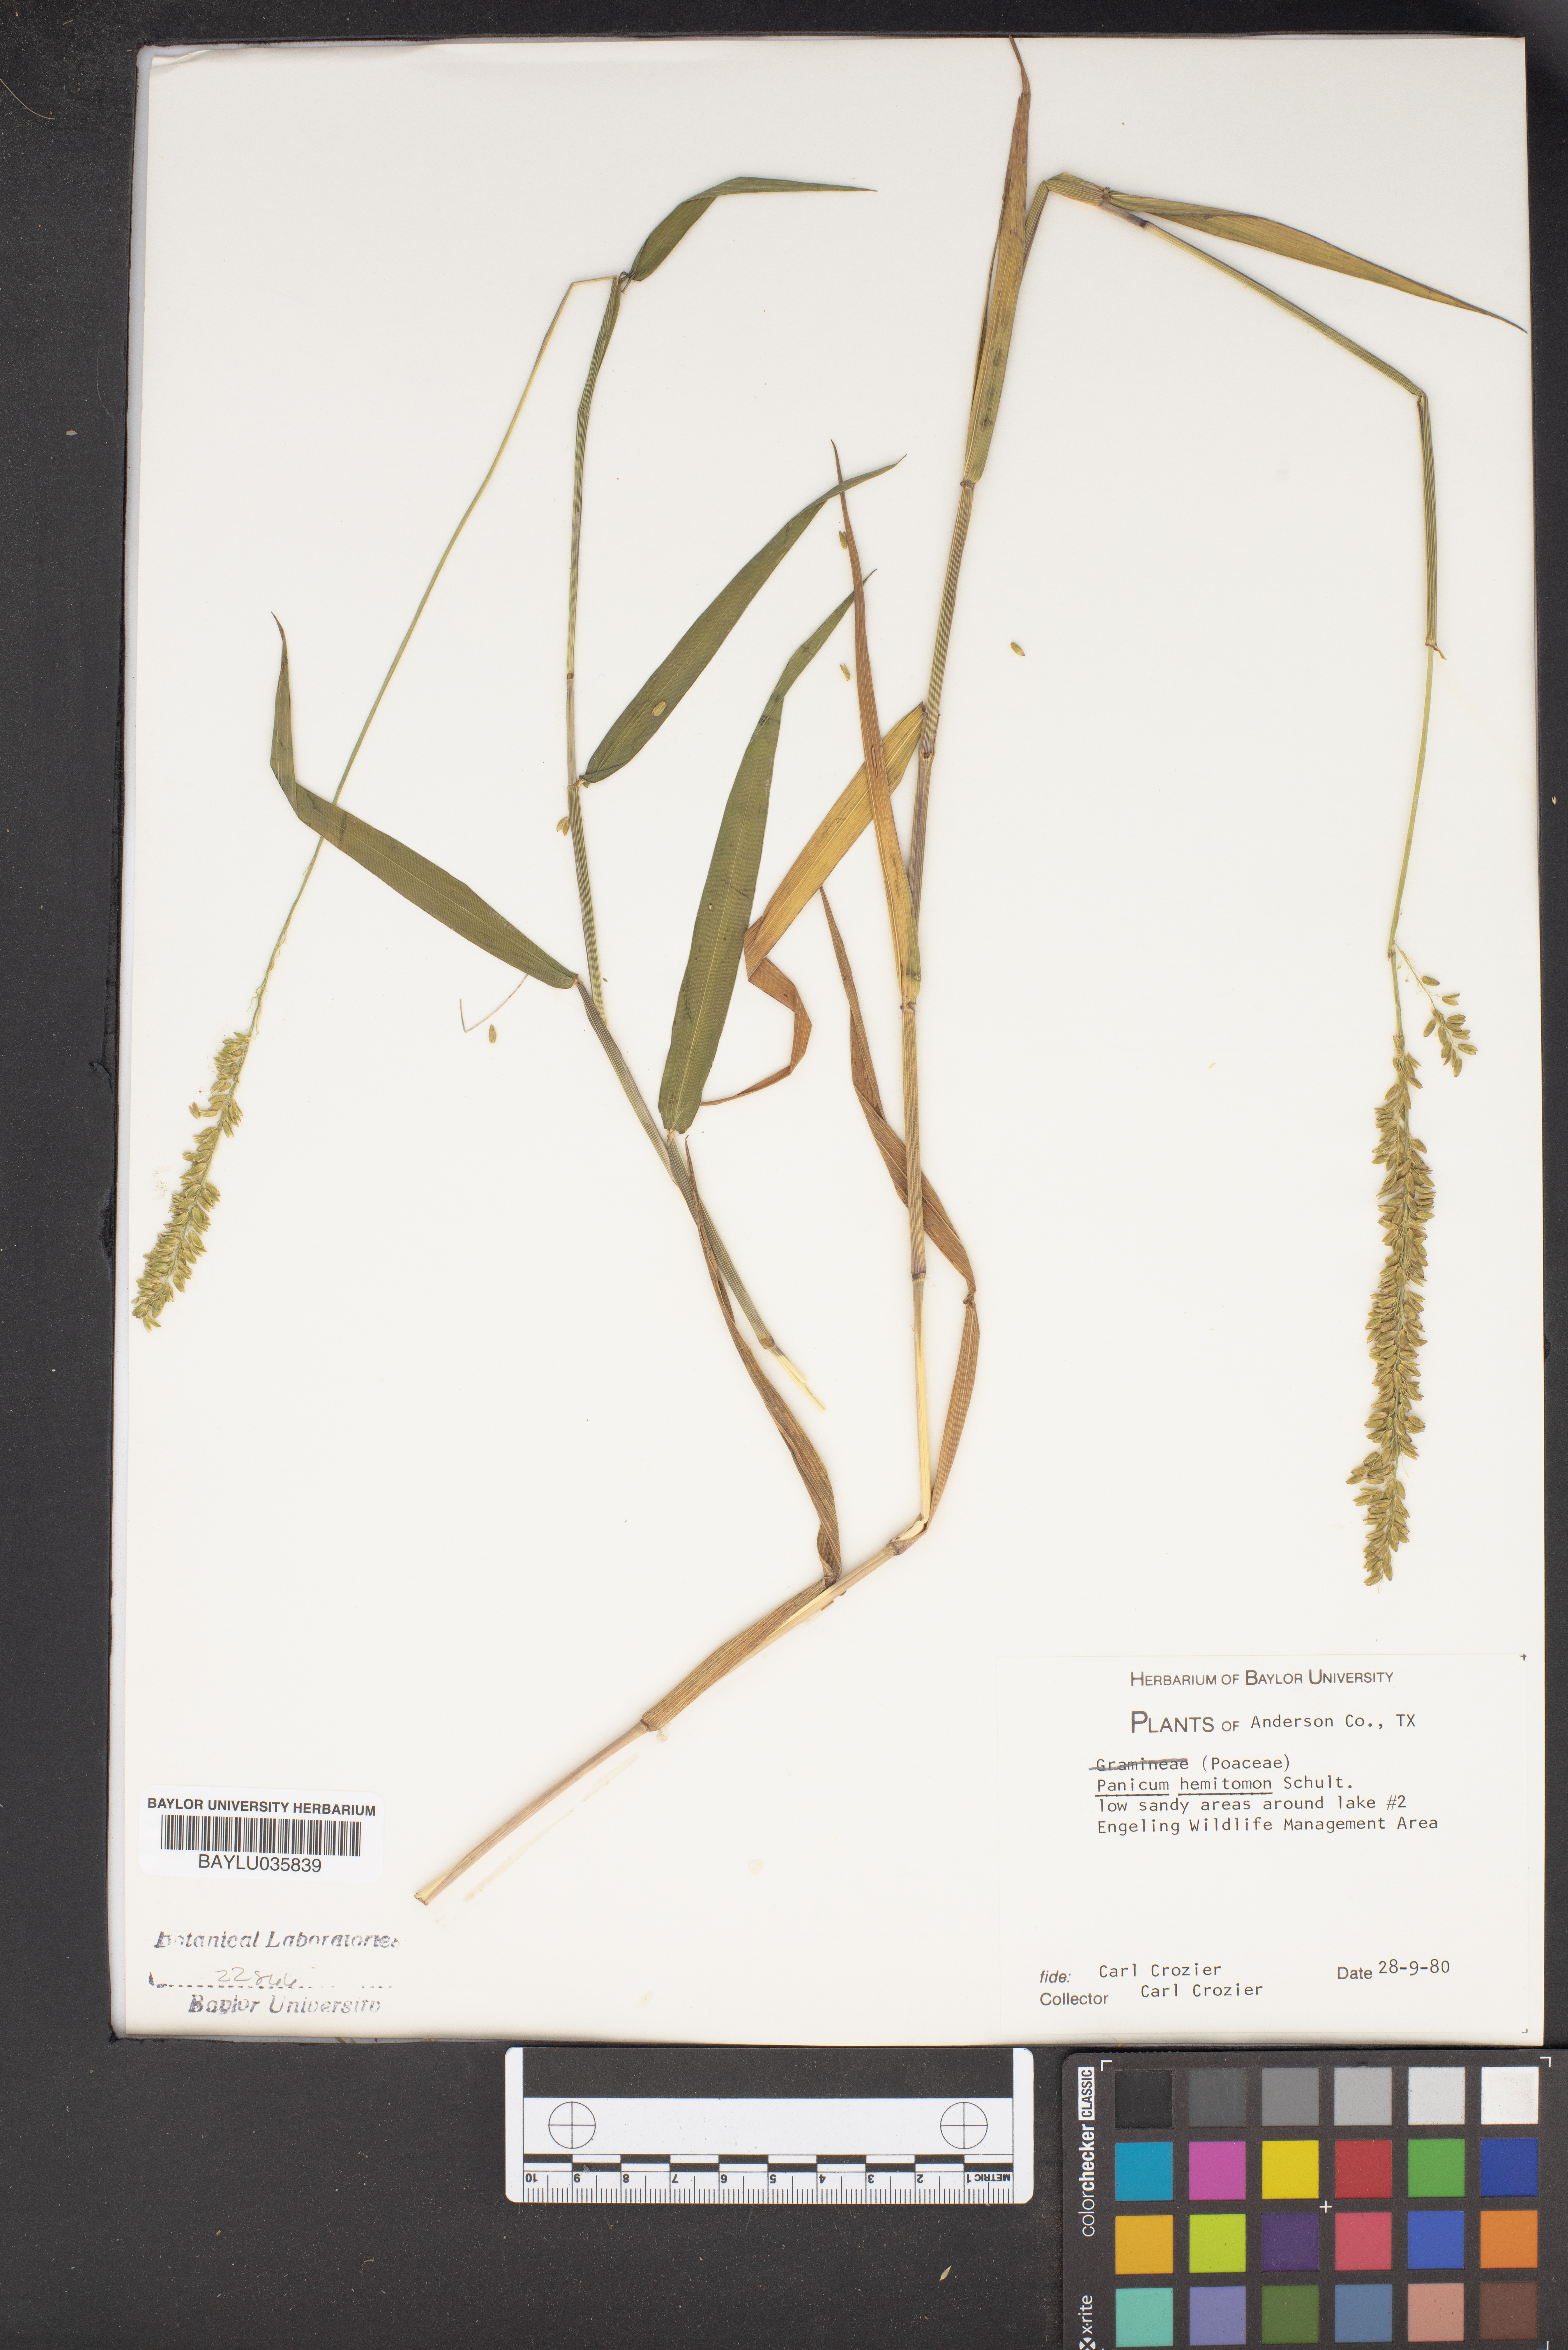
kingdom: Plantae
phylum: Tracheophyta
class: Liliopsida
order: Poales
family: Poaceae
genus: Panicum
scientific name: Panicum hemitomon
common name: Maidencane
